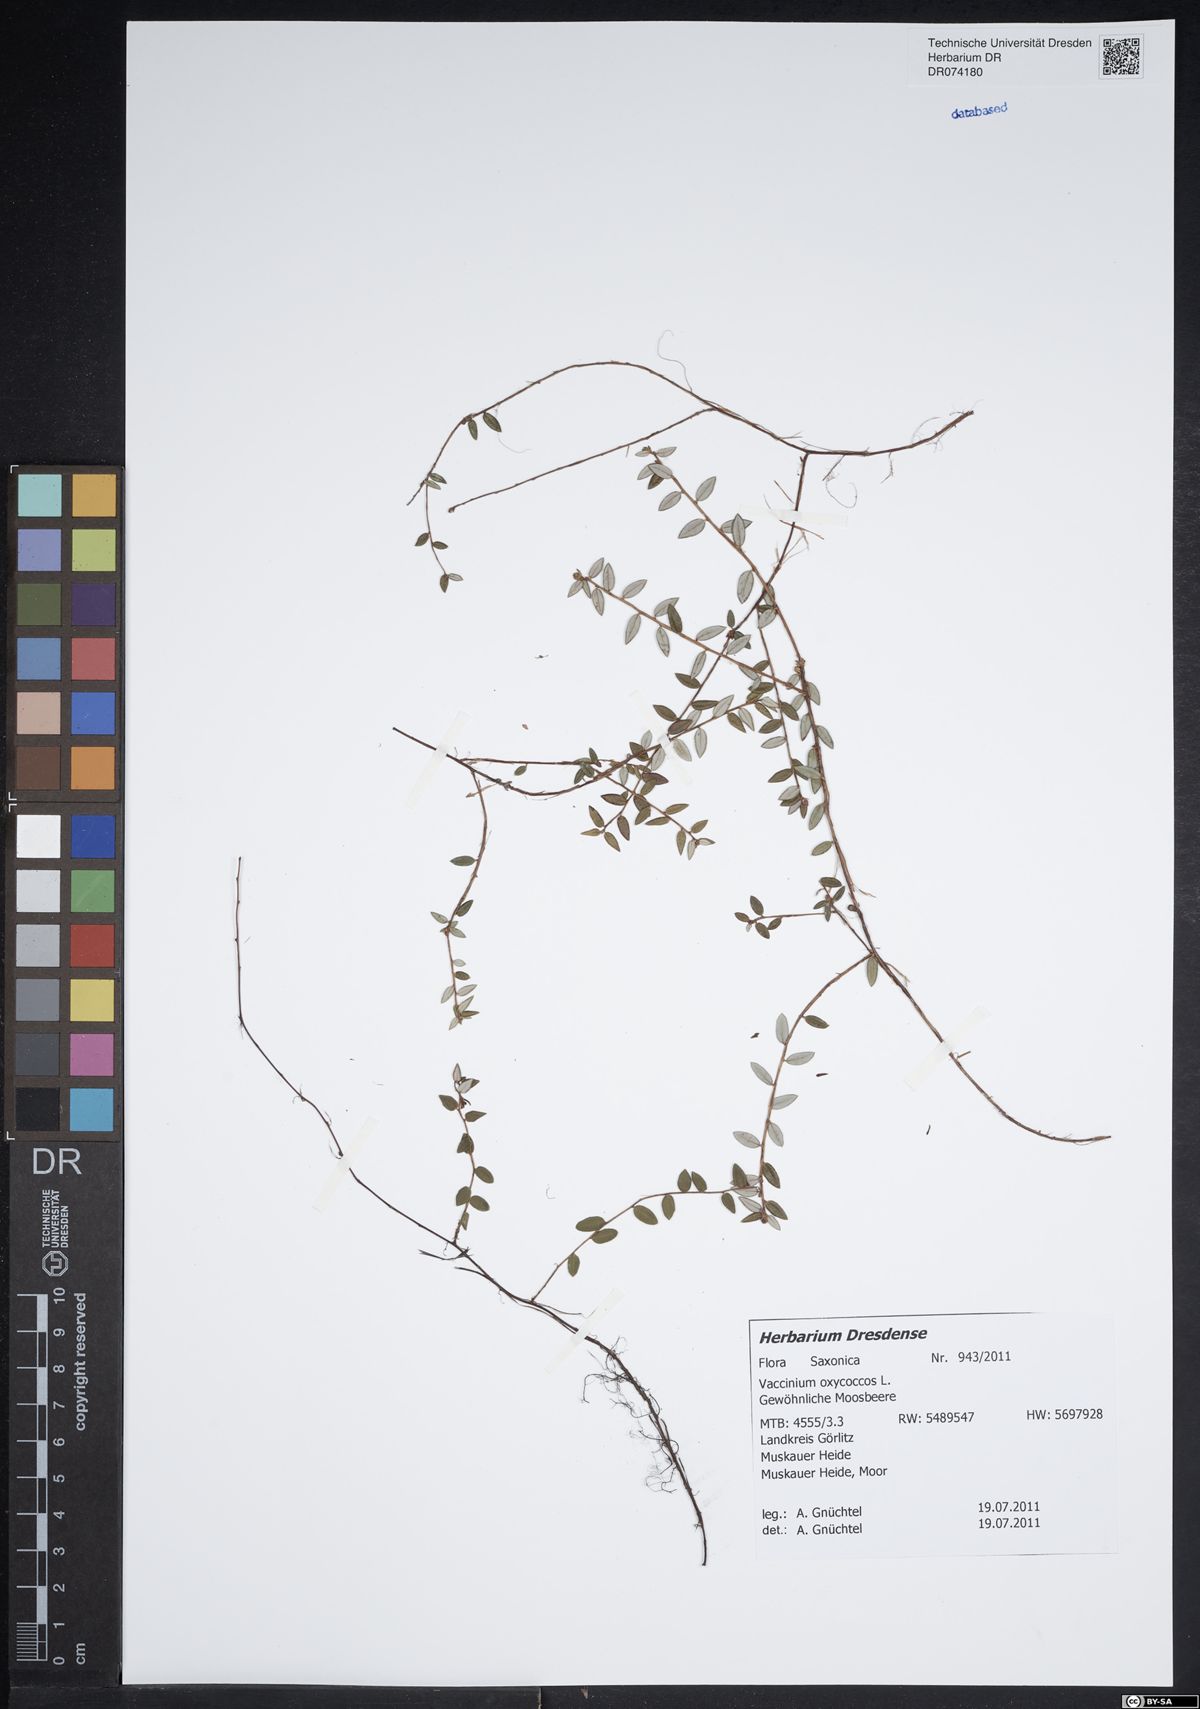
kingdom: Plantae
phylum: Tracheophyta
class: Magnoliopsida
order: Ericales
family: Ericaceae
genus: Vaccinium
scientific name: Vaccinium oxycoccos
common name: Cranberry
